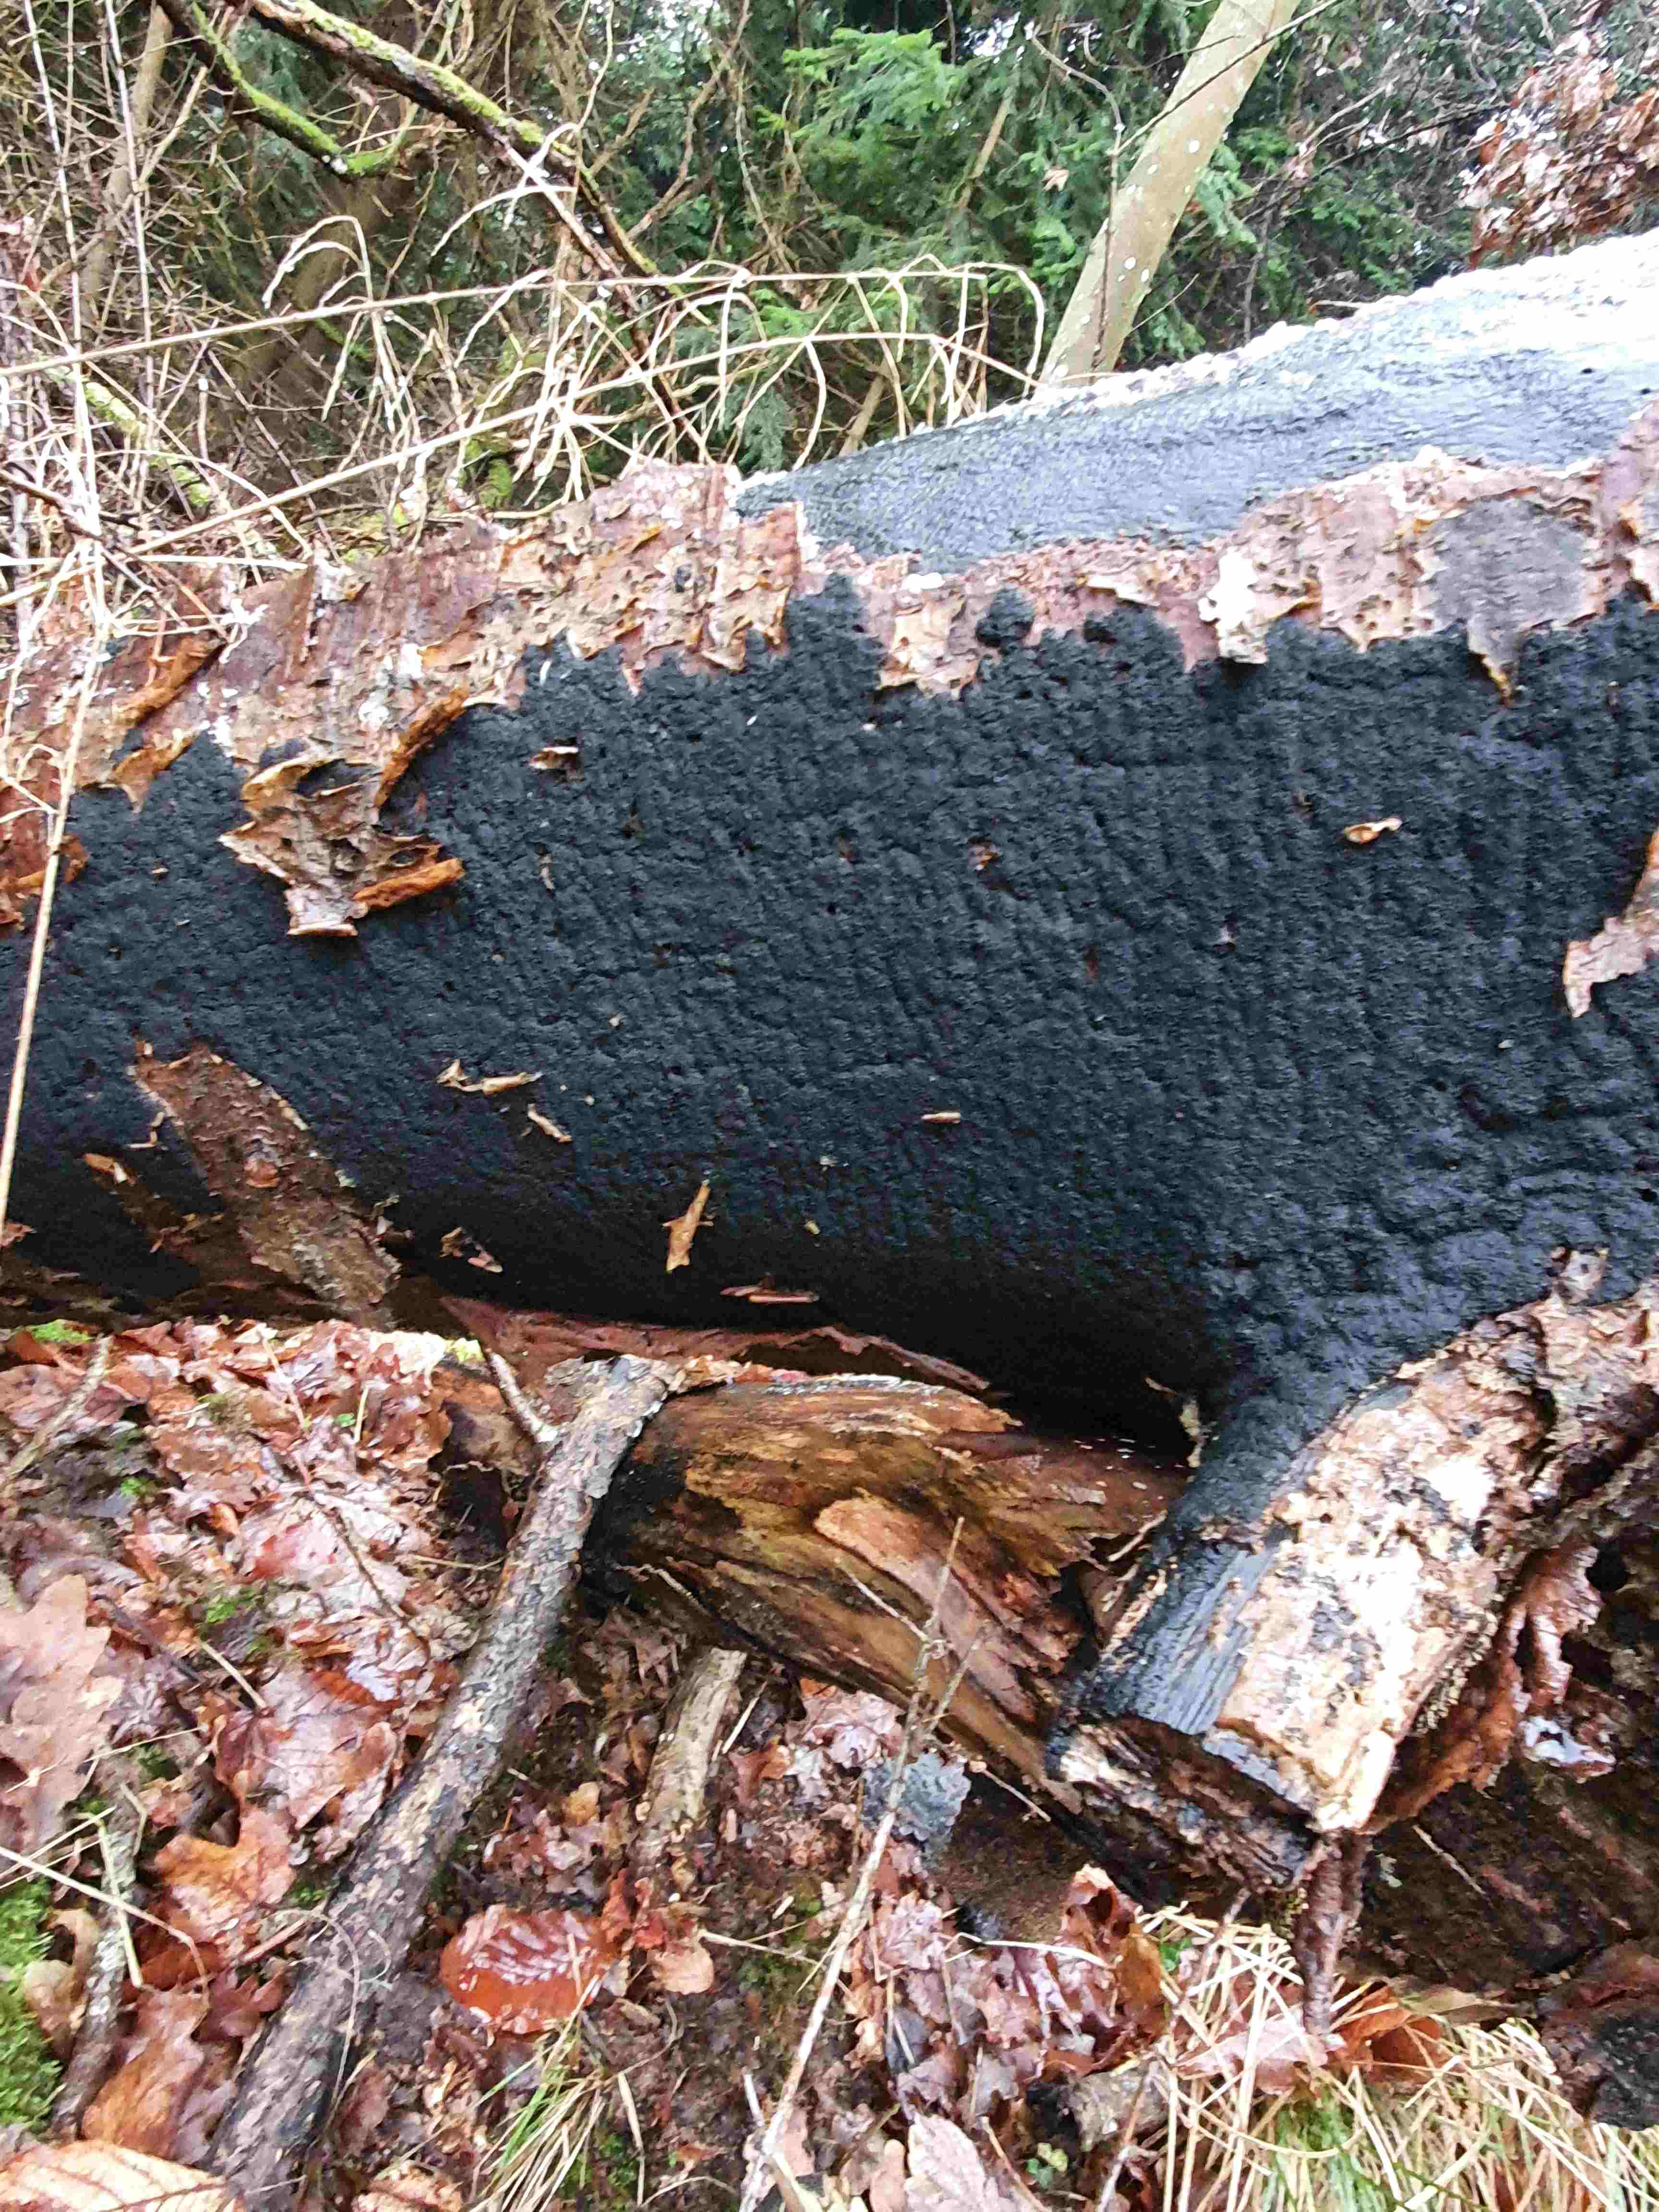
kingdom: Fungi
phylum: Ascomycota
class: Sordariomycetes
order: Xylariales
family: Diatrypaceae
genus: Eutypa
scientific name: Eutypa spinosa
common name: grov kulskorpe
